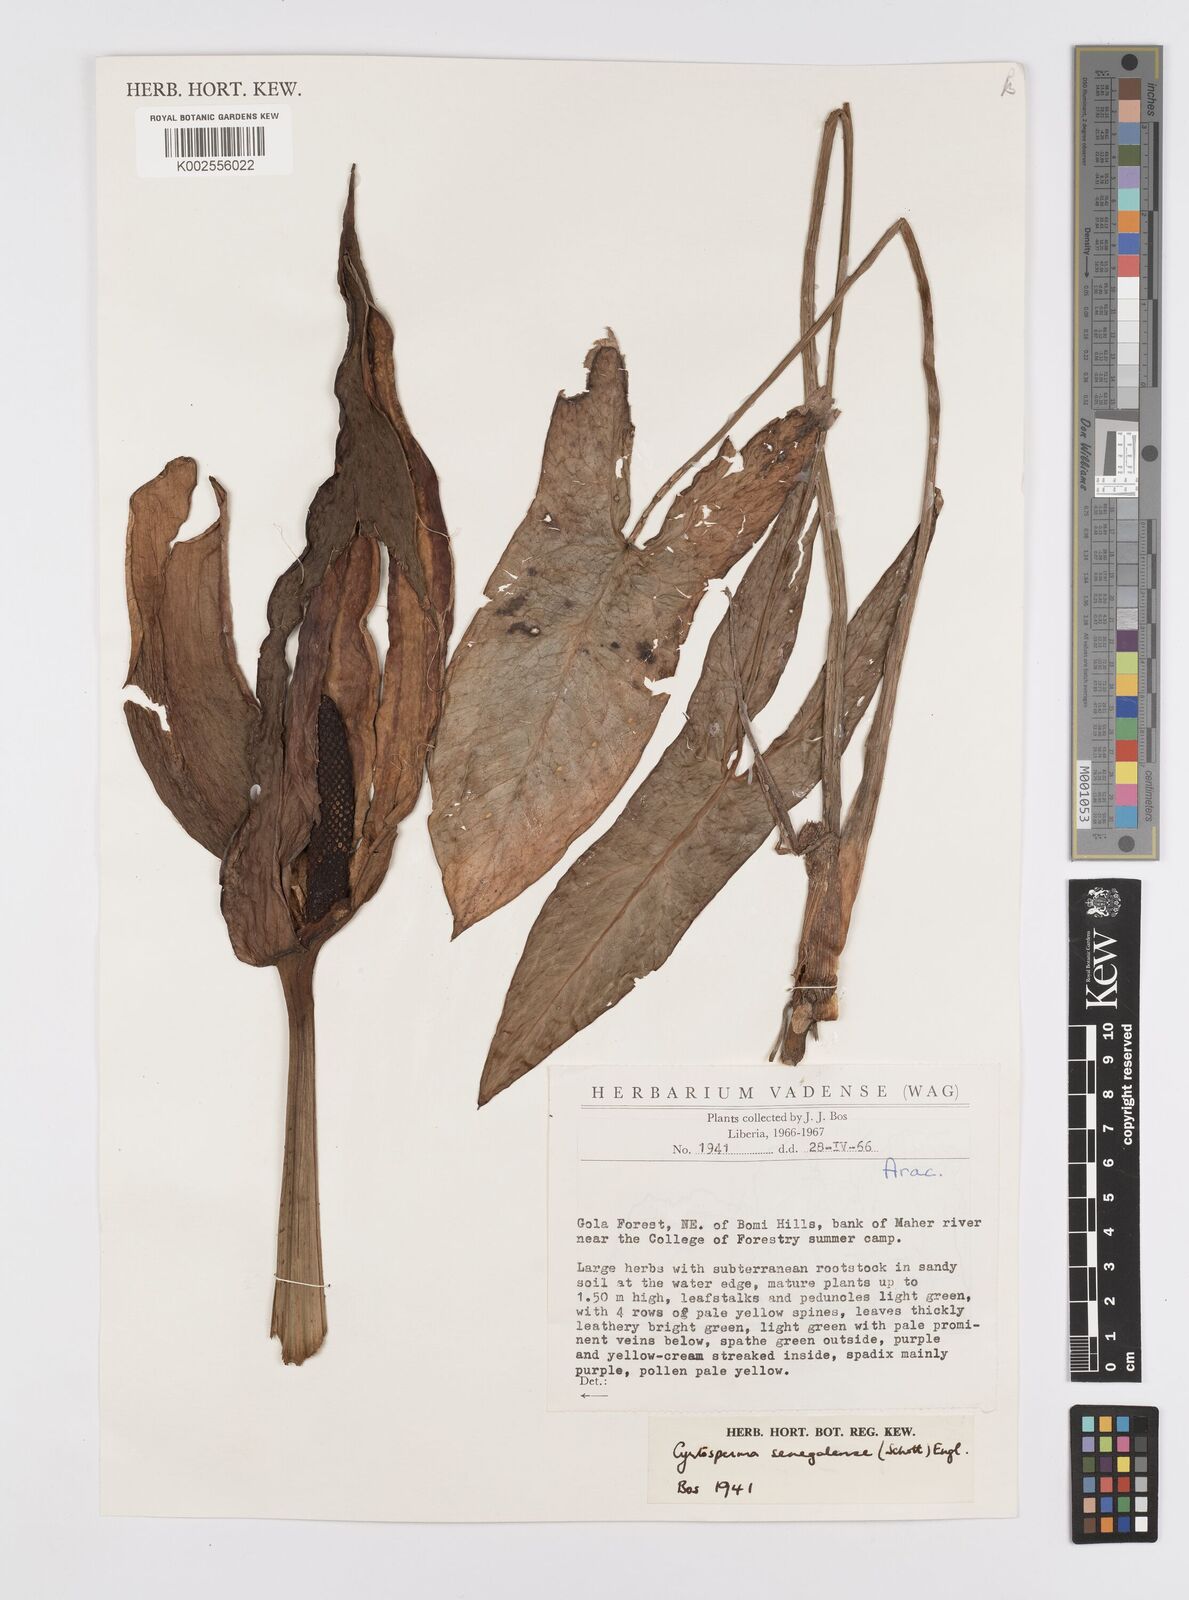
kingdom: Plantae
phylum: Tracheophyta
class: Liliopsida
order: Alismatales
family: Araceae
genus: Lasimorpha
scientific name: Lasimorpha senegalensis
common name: Swamp arum
